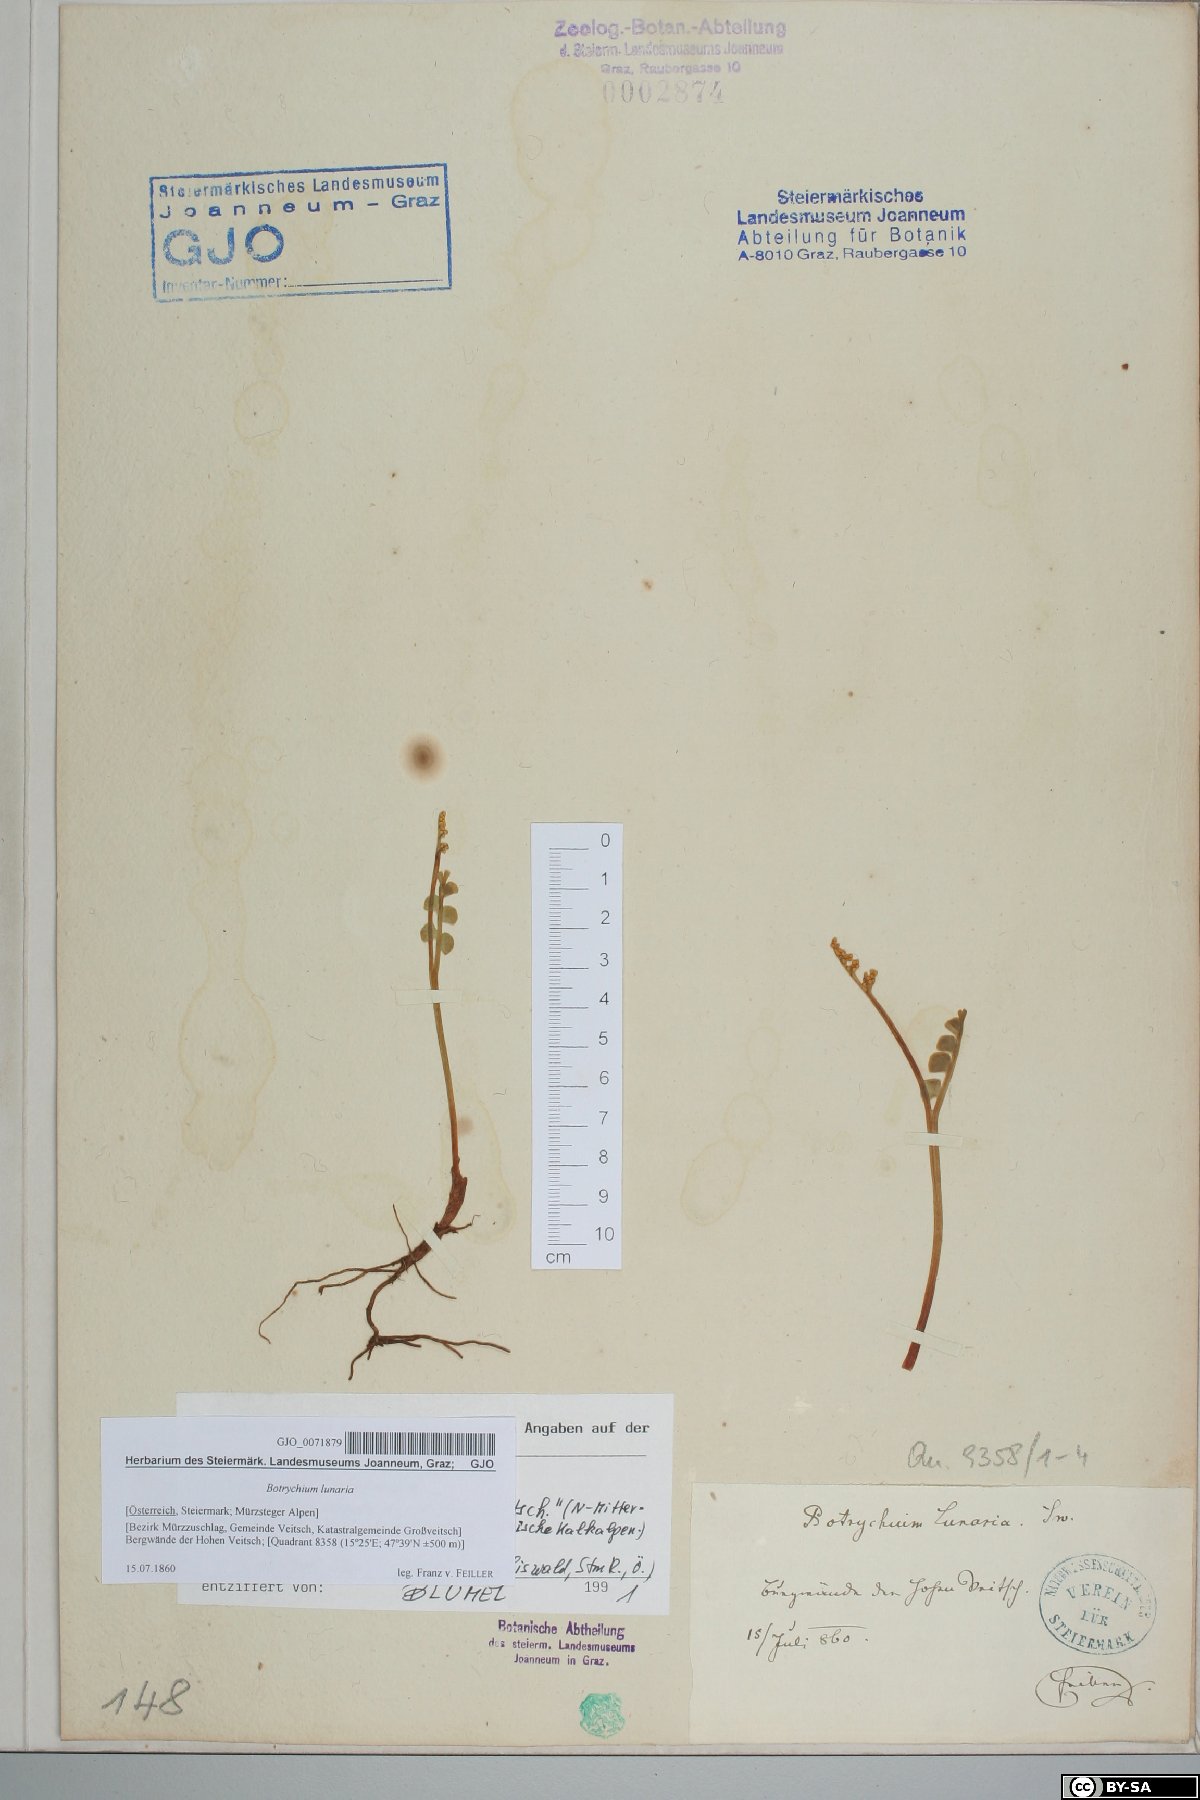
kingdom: Plantae
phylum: Tracheophyta
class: Polypodiopsida
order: Ophioglossales
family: Ophioglossaceae
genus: Botrychium
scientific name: Botrychium lunaria
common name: Moonwort
